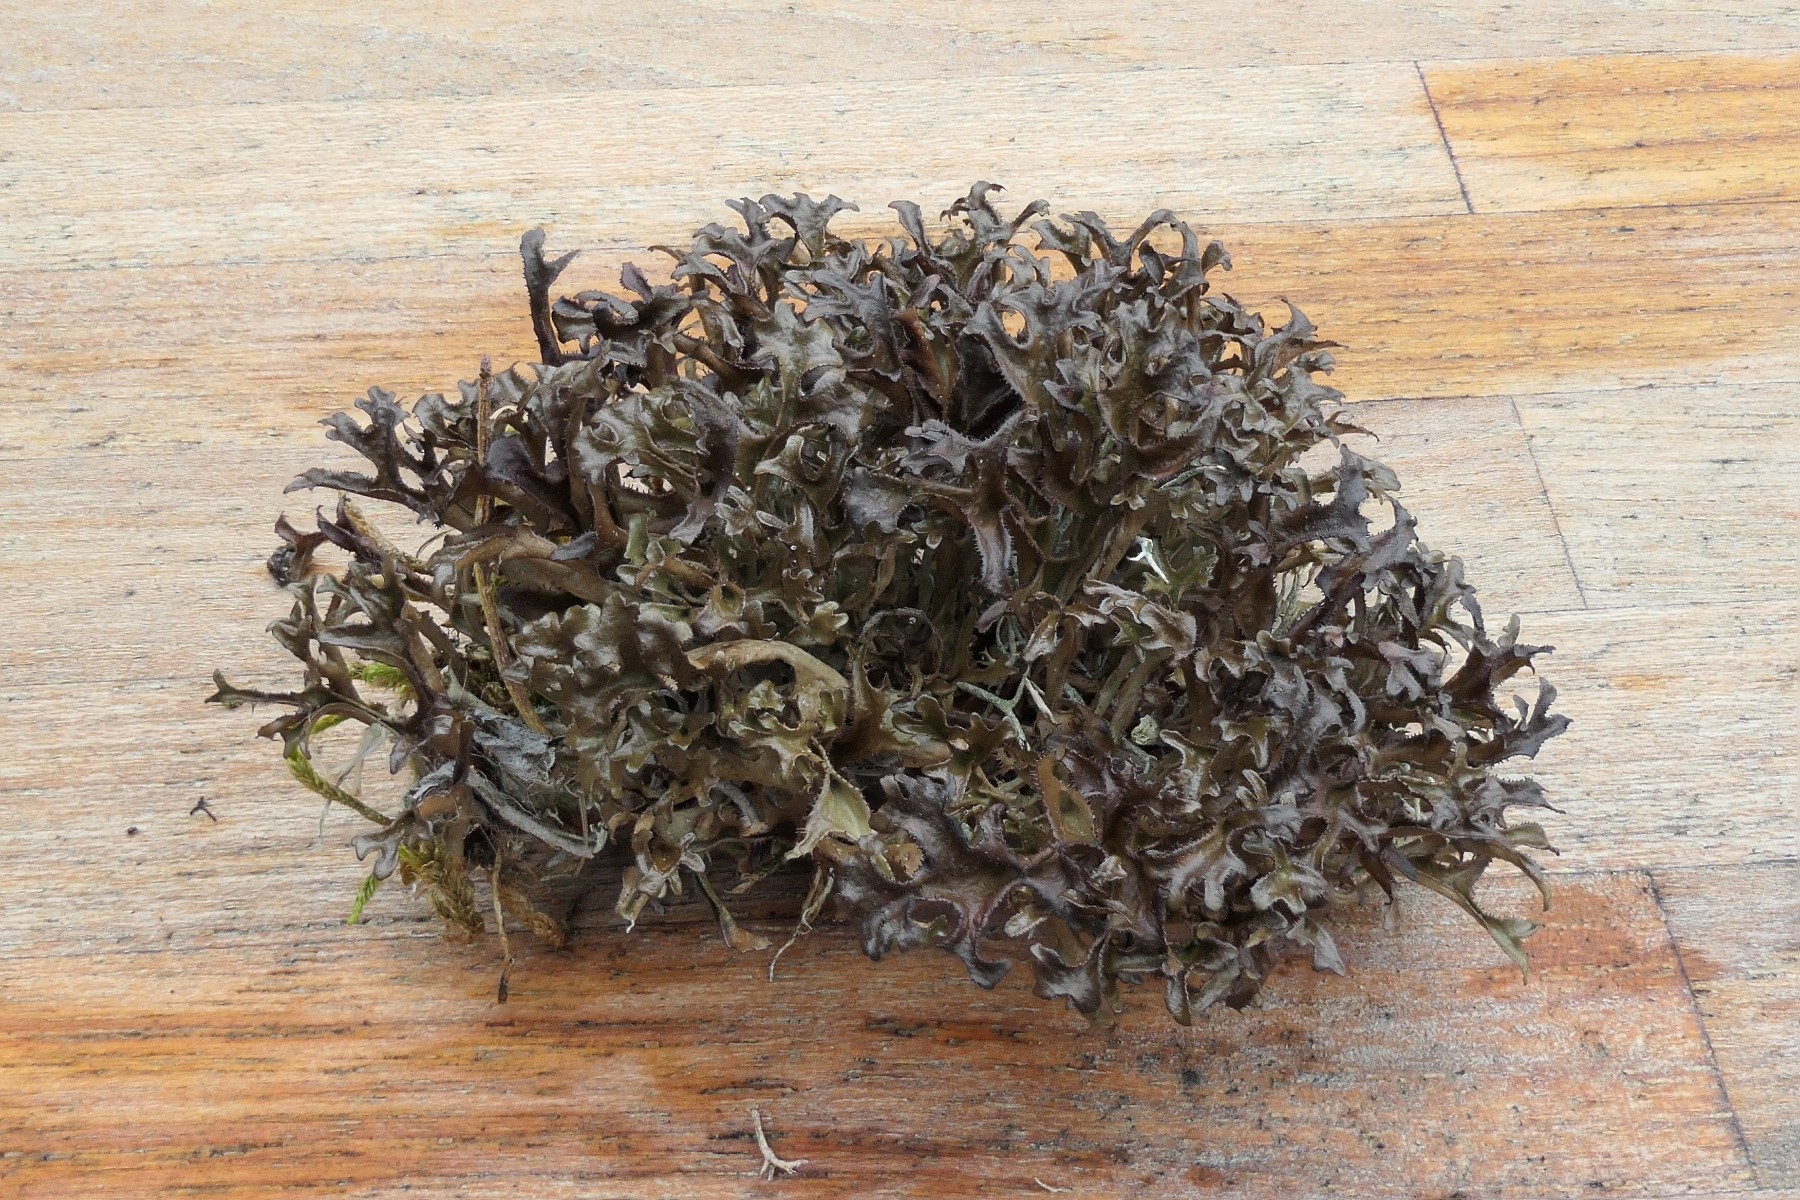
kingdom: Fungi
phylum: Ascomycota
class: Lecanoromycetes
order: Lecanorales
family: Parmeliaceae
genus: Cetraria
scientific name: Cetraria islandica
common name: islandsk kruslav
